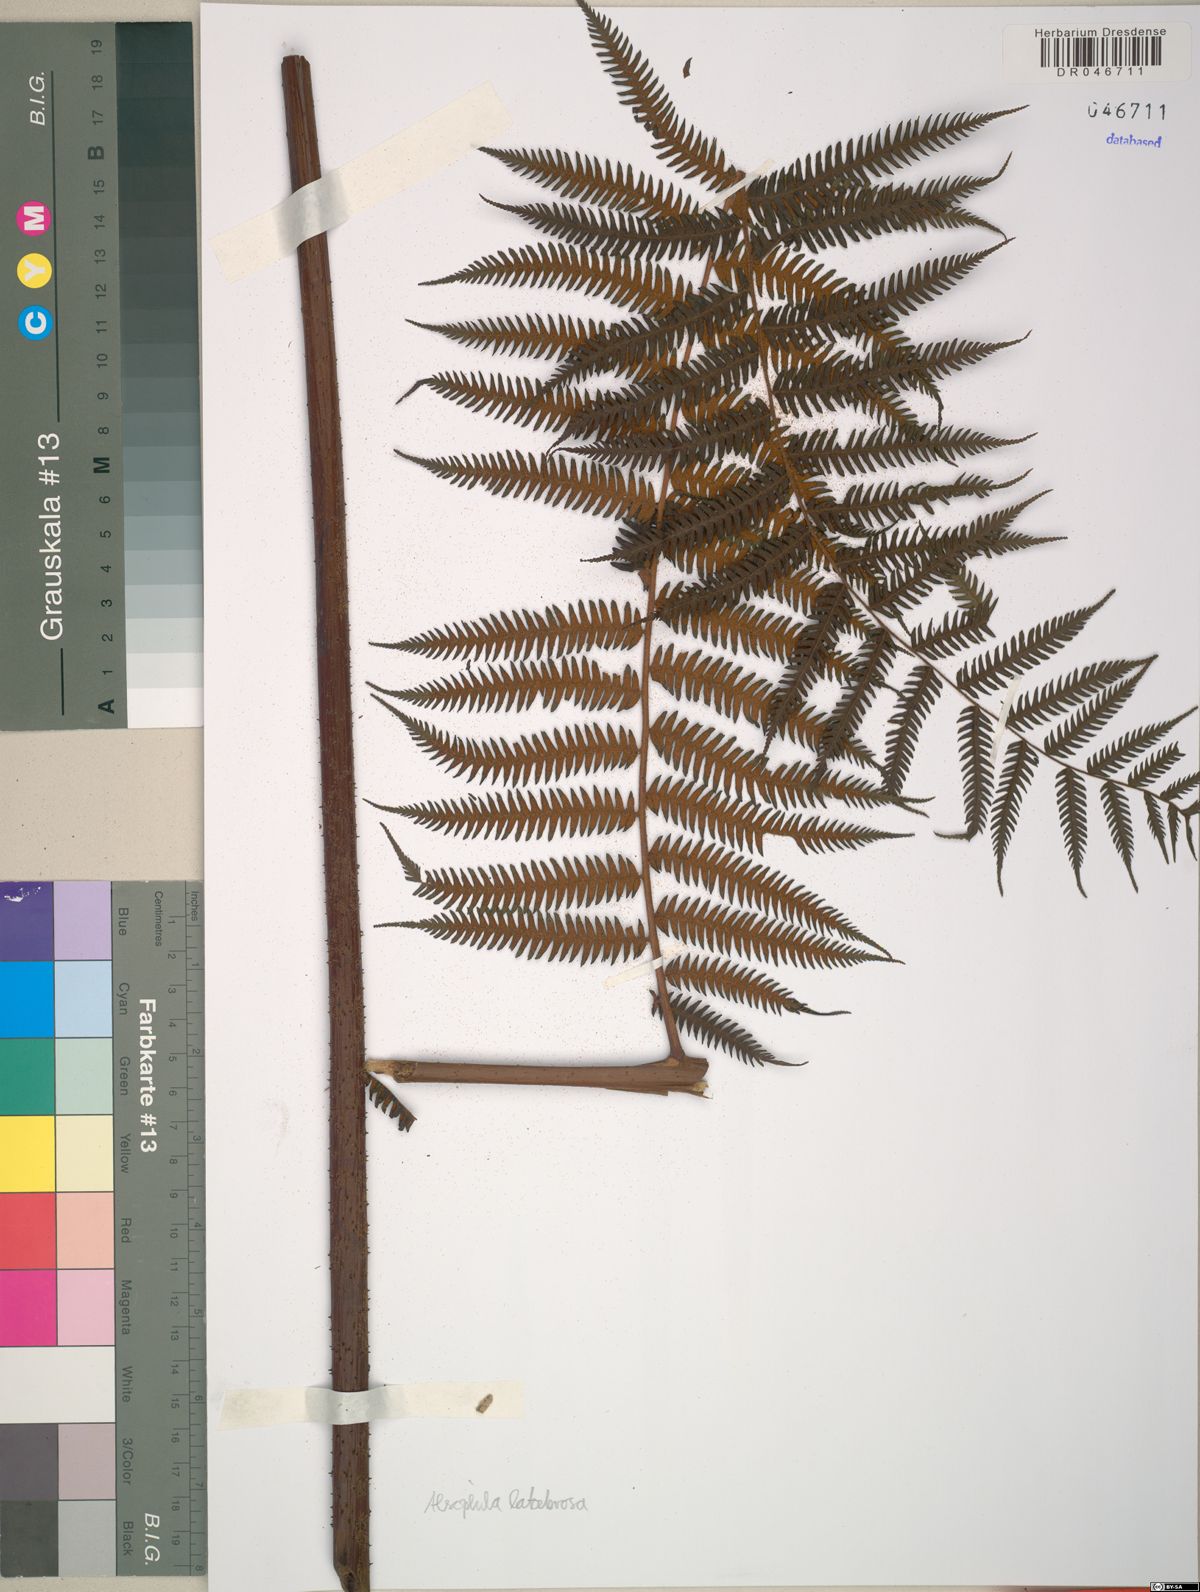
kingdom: Plantae
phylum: Tracheophyta
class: Polypodiopsida
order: Cyatheales
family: Cyatheaceae
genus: Alsophila
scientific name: Alsophila latebrosa
